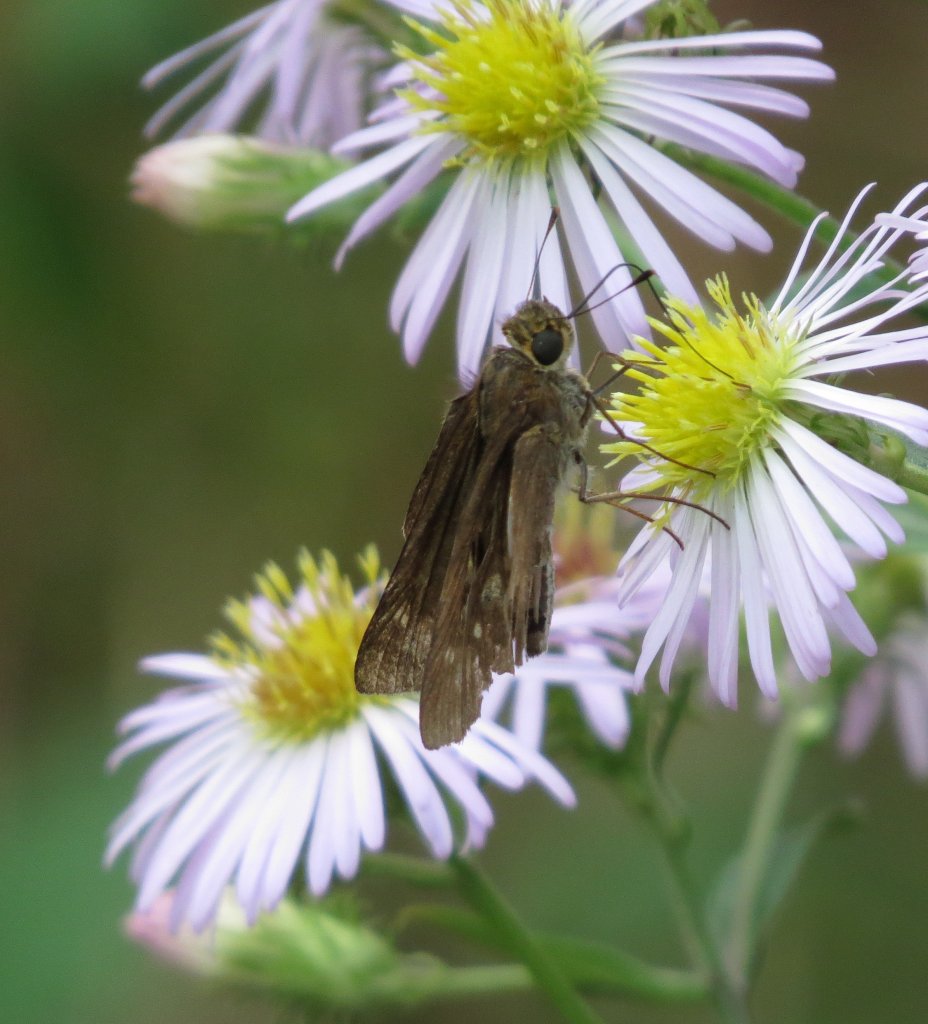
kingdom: Animalia
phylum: Arthropoda
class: Insecta
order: Lepidoptera
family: Hesperiidae
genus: Panoquina
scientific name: Panoquina ocola
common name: Ocola Skipper
